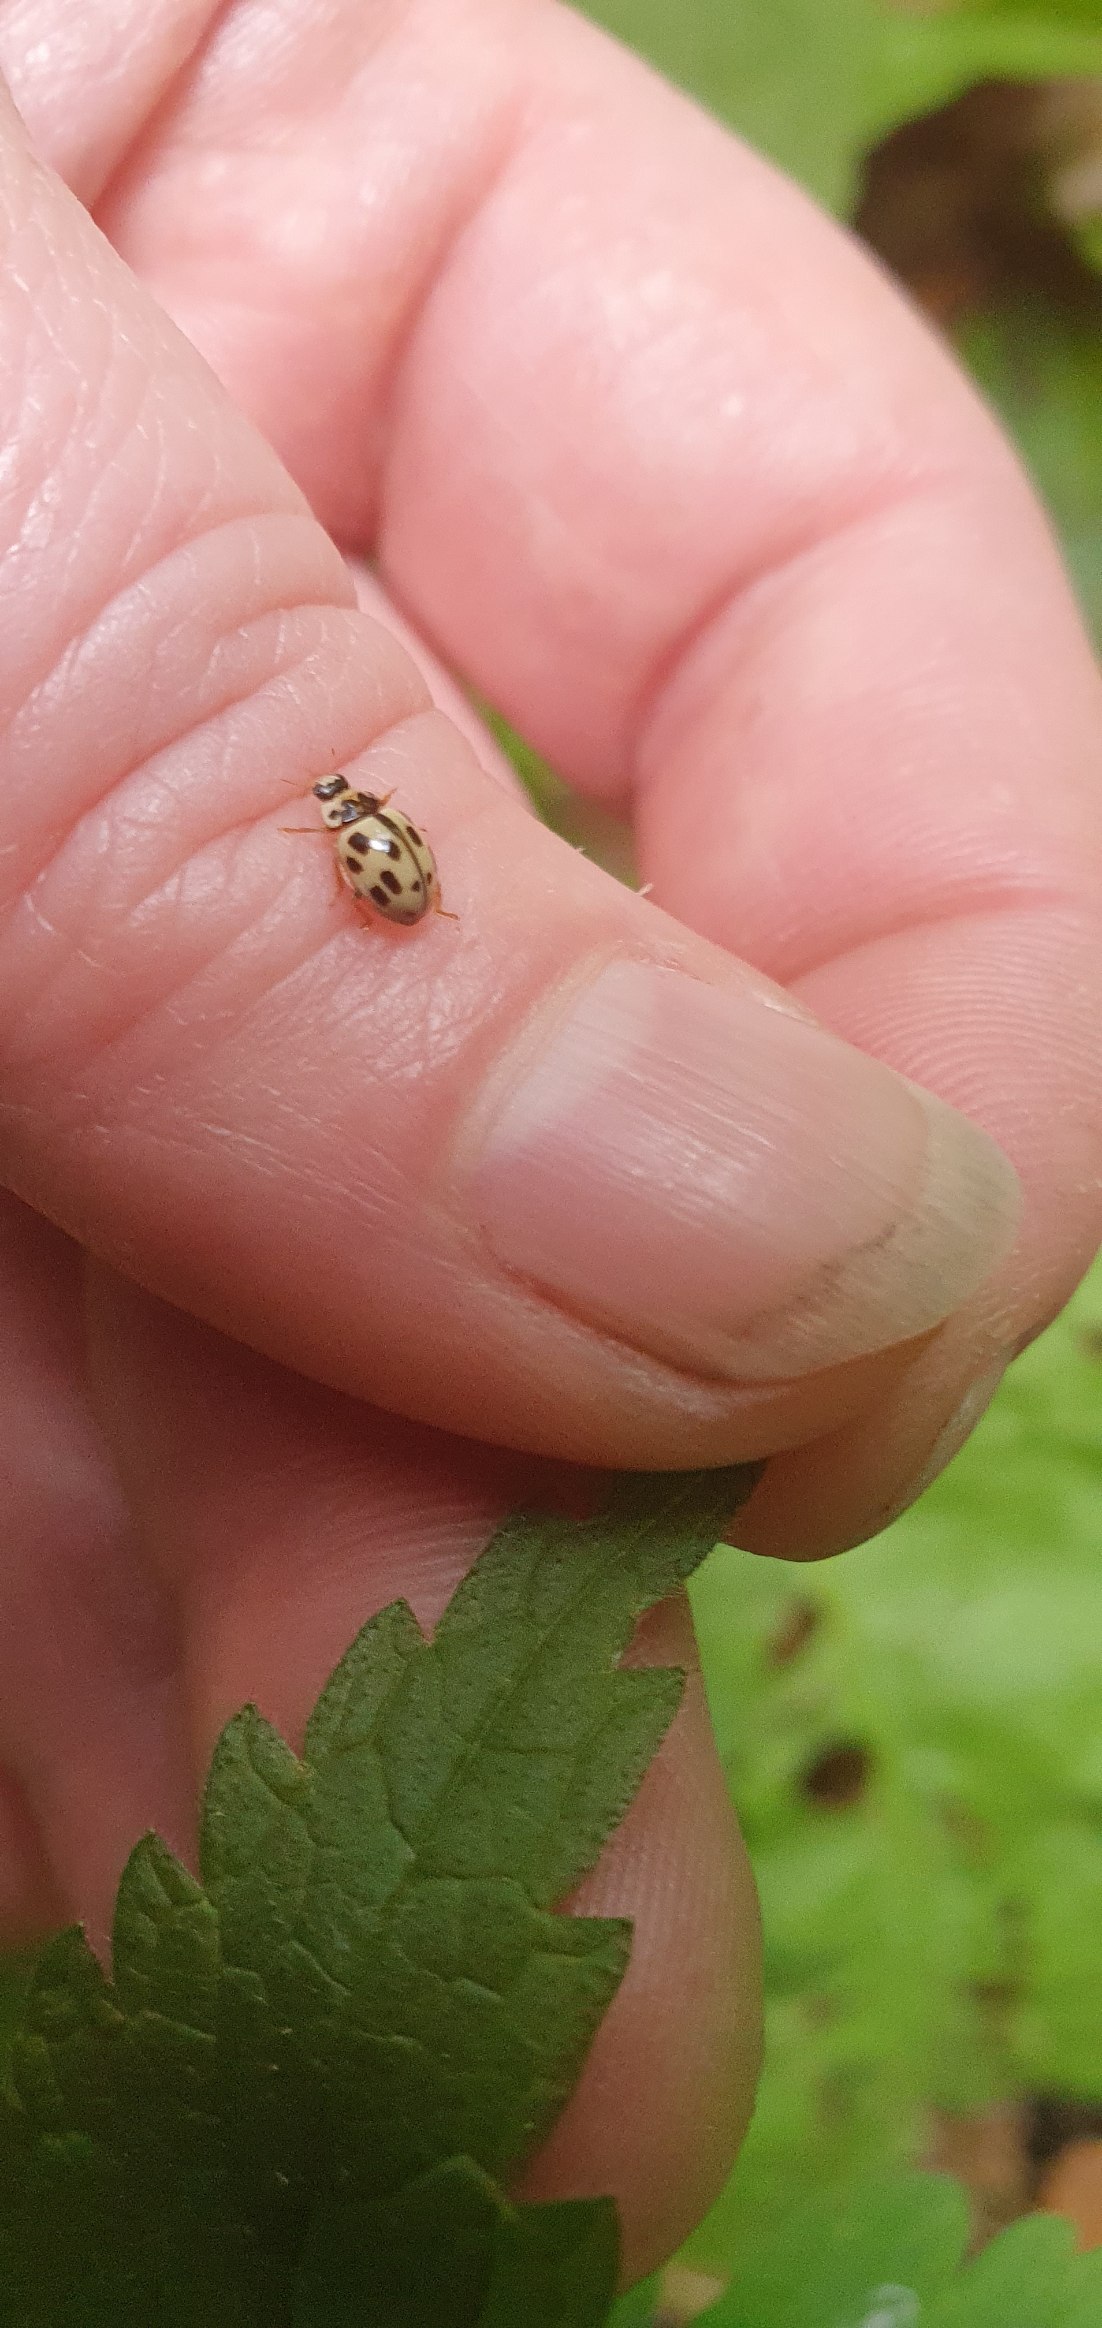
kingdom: Animalia
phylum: Arthropoda
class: Insecta
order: Coleoptera
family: Coccinellidae
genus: Propylaea
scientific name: Propylaea quatuordecimpunctata
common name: Skakbræt
